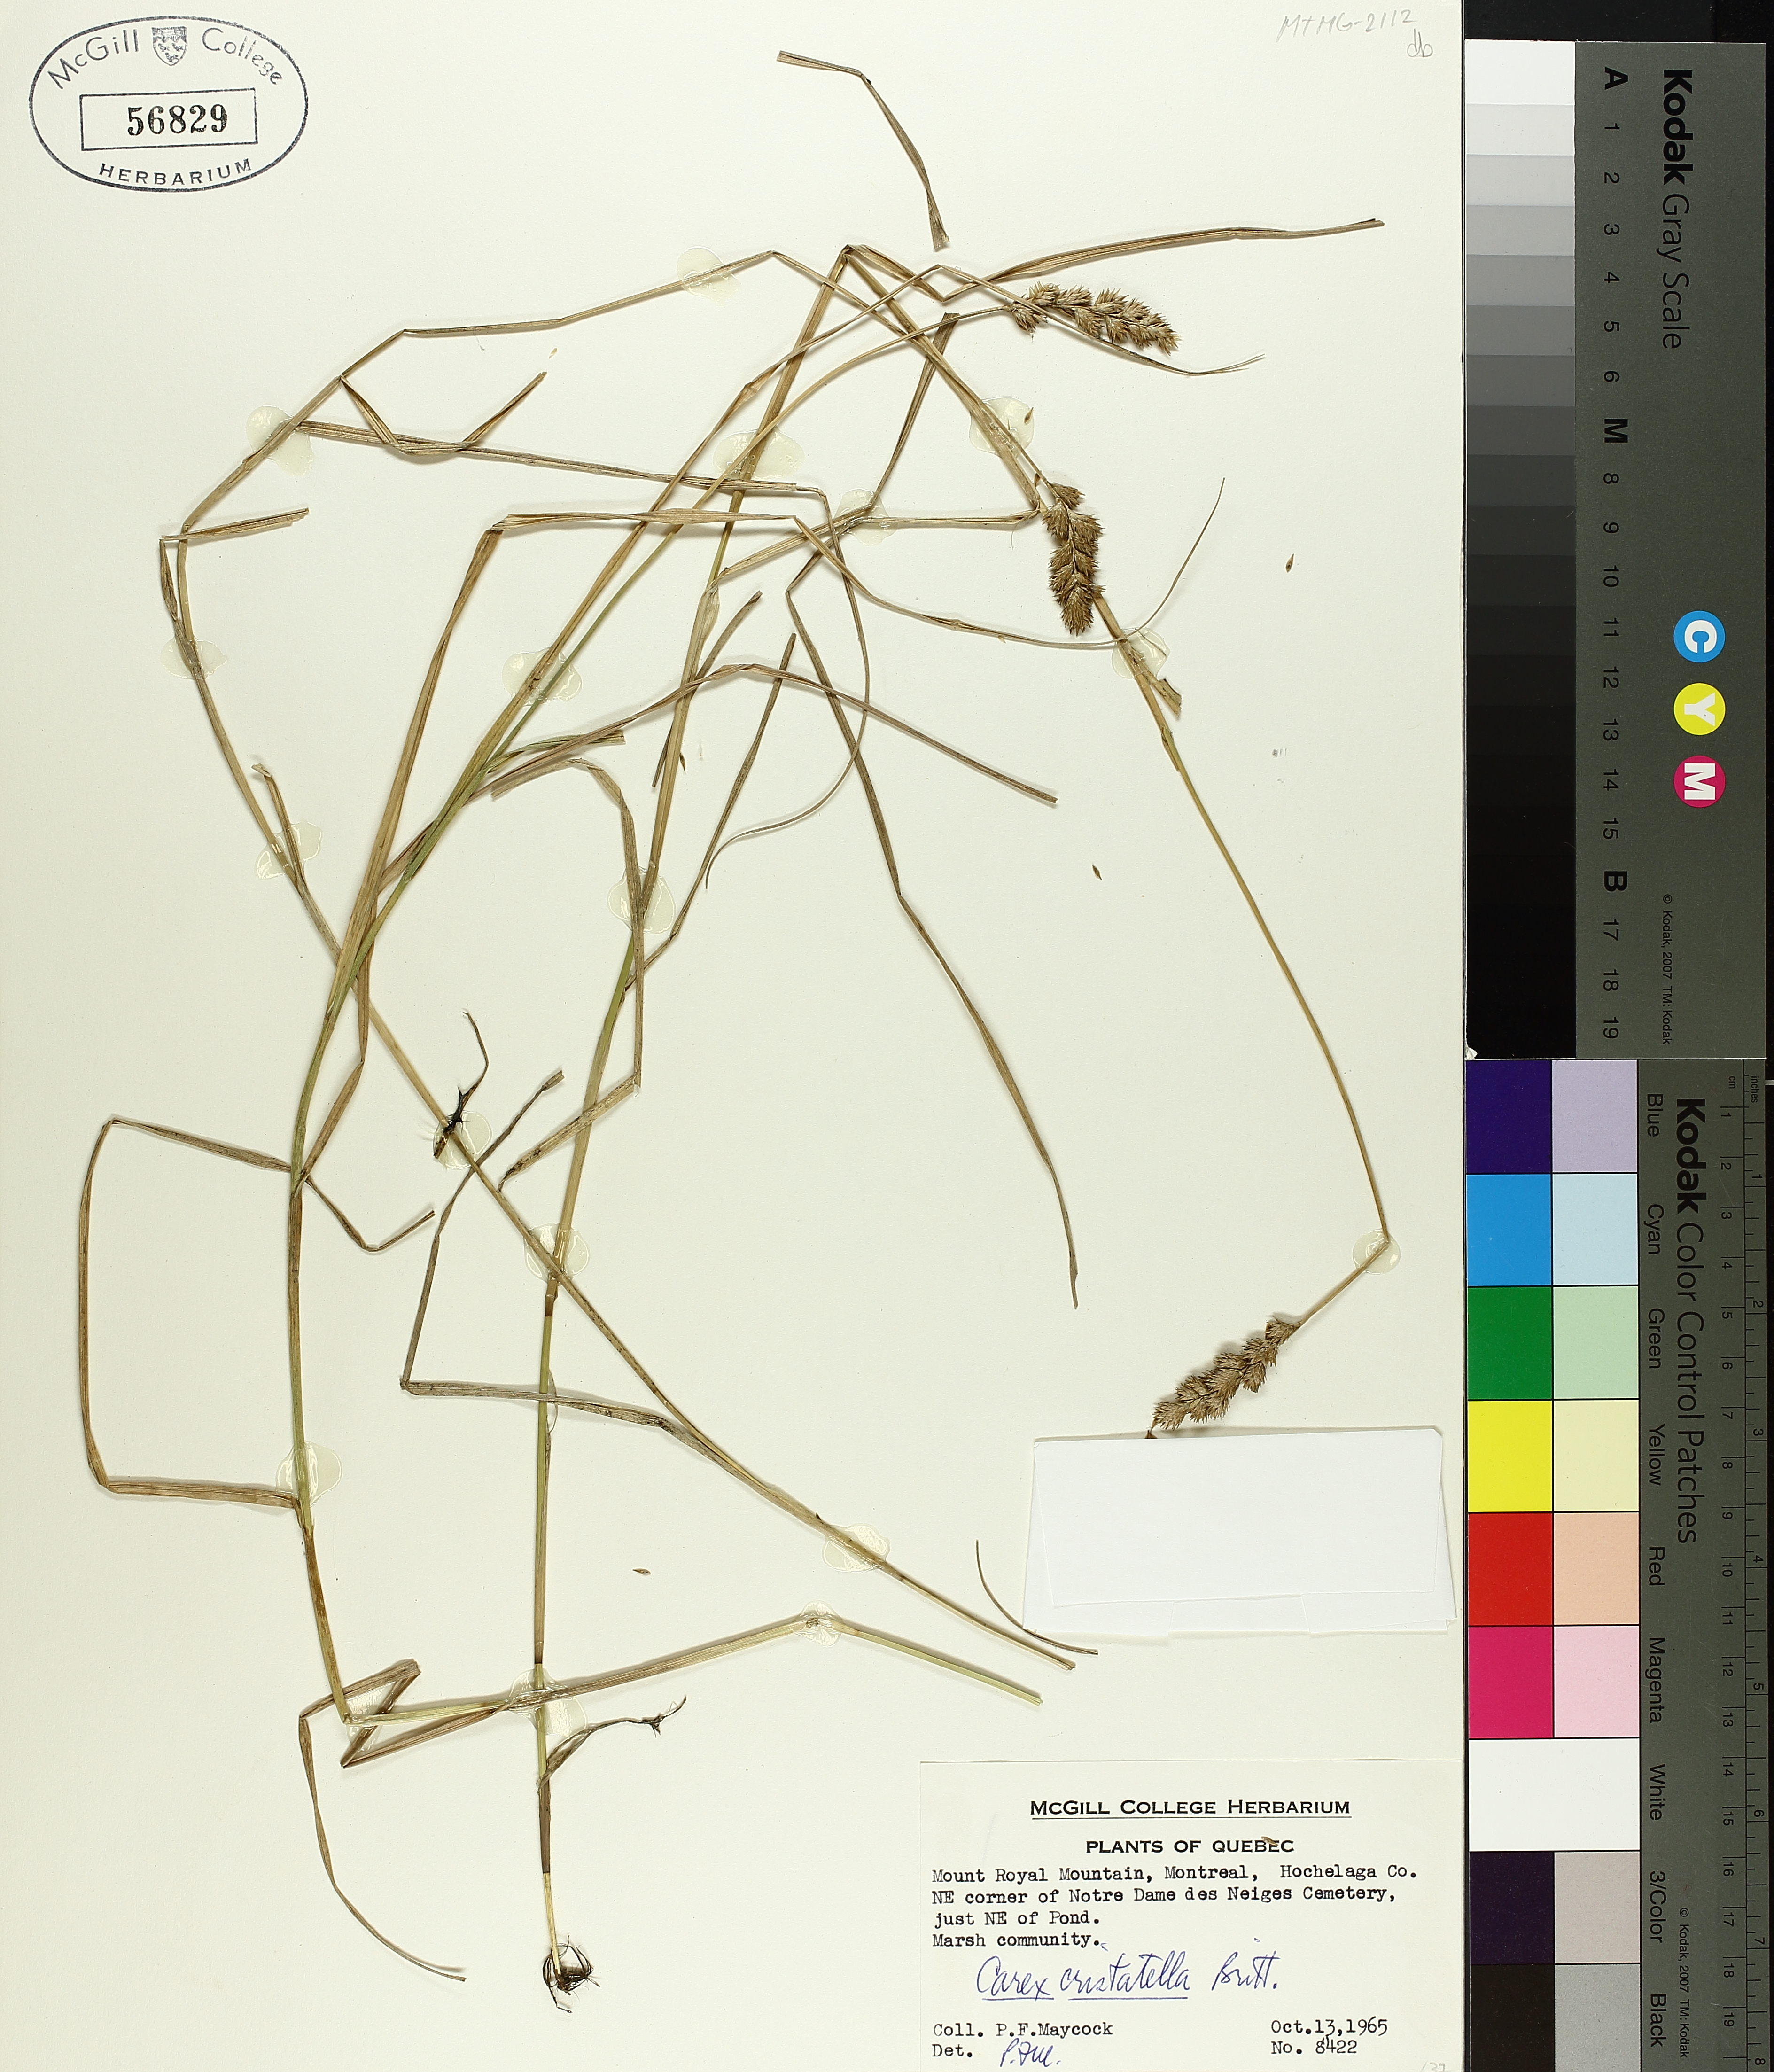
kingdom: Plantae
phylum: Tracheophyta
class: Liliopsida
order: Poales
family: Cyperaceae
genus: Carex
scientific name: Carex cristatella
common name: Crested oval sedge
